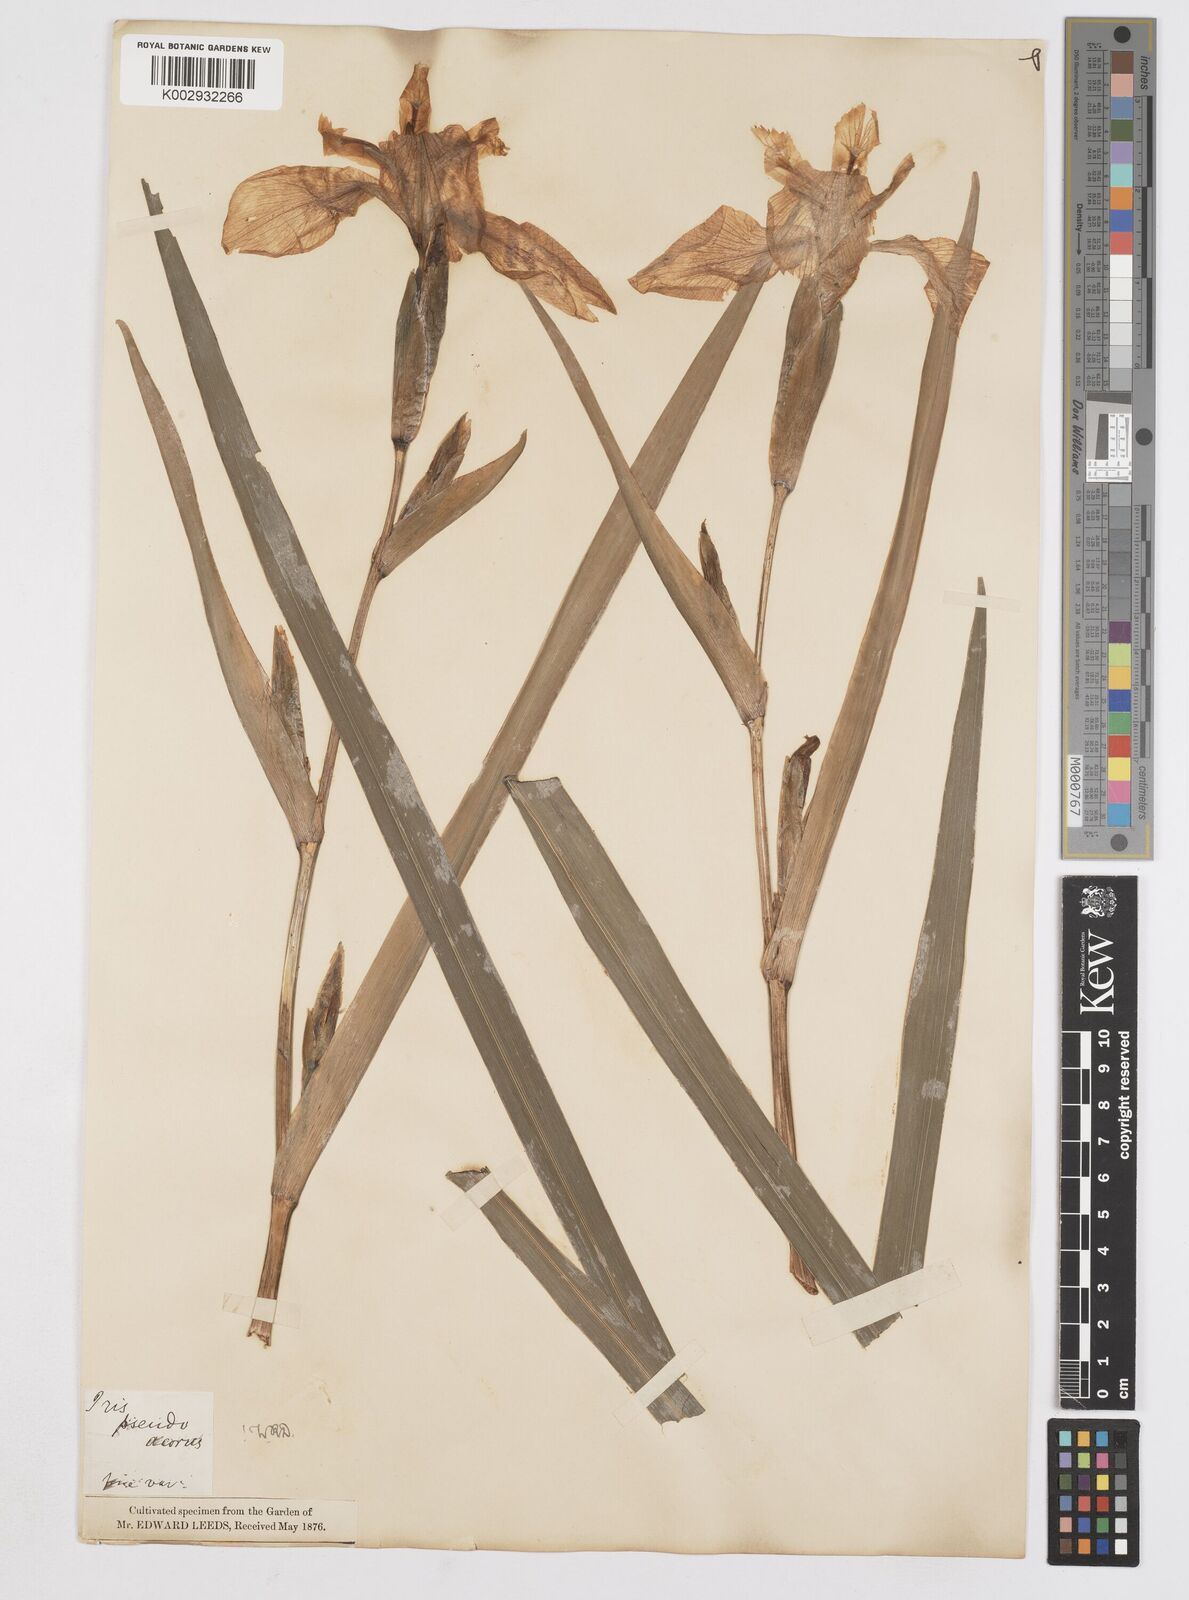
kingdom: Plantae
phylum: Tracheophyta
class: Liliopsida
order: Asparagales
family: Iridaceae
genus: Iris
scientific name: Iris pseudacorus
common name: Yellow flag
